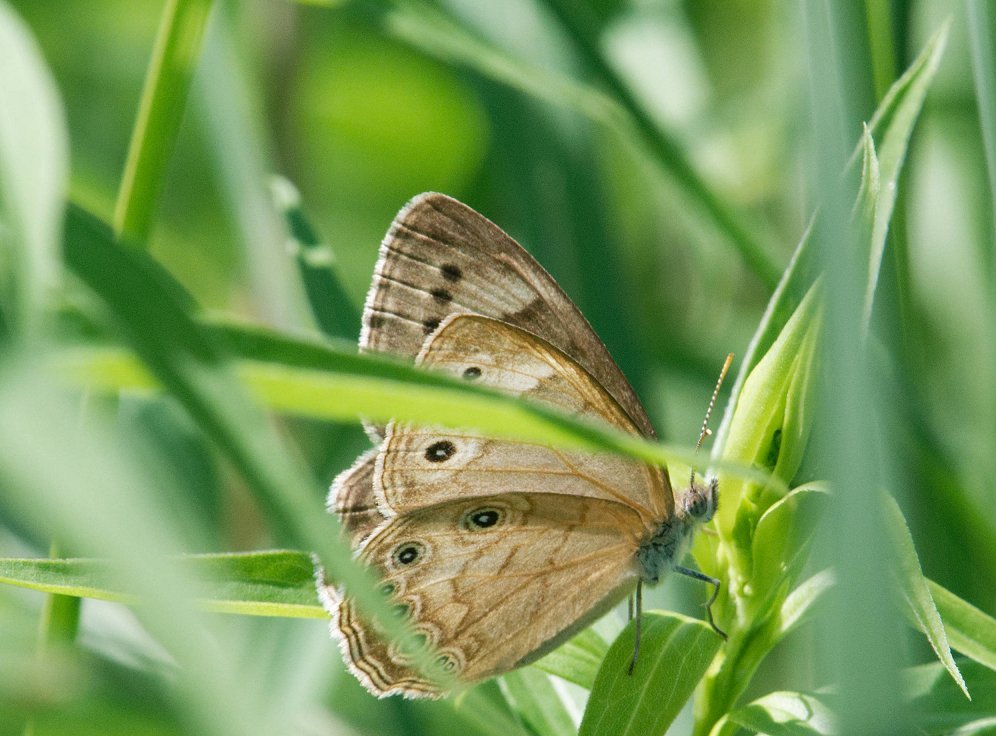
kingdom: Animalia
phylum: Arthropoda
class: Insecta
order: Lepidoptera
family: Nymphalidae
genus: Lethe
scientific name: Lethe eurydice
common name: Eyed Brown
